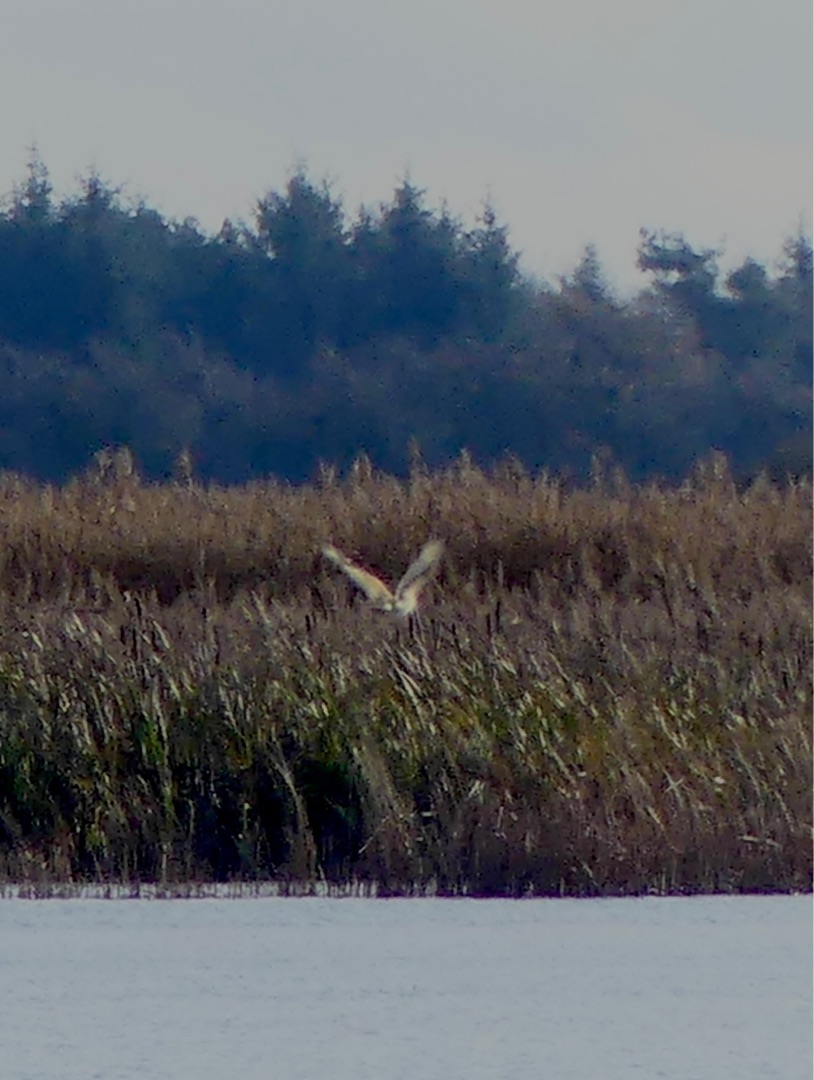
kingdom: Animalia
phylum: Chordata
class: Aves
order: Accipitriformes
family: Accipitridae
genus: Buteo
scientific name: Buteo buteo
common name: Musvåge
